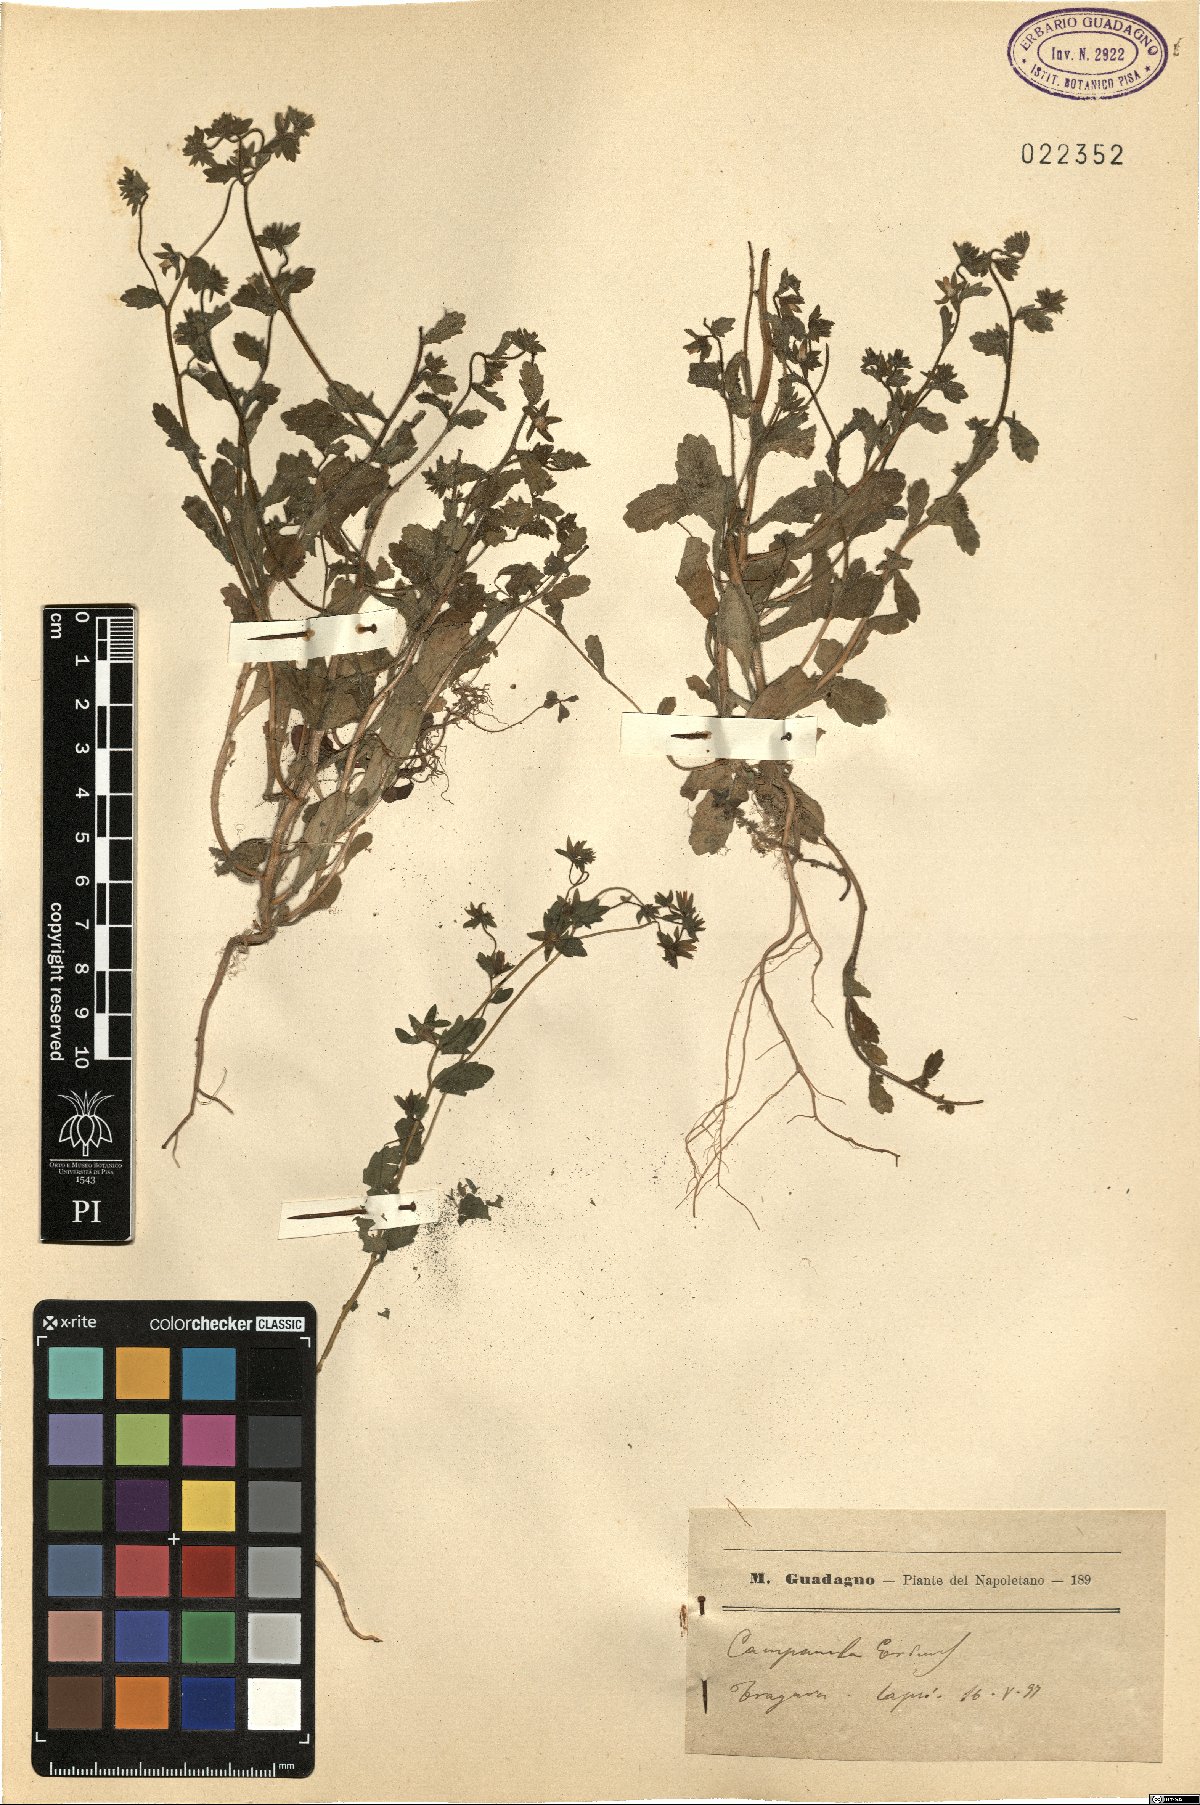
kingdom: Plantae
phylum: Tracheophyta
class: Magnoliopsida
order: Asterales
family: Campanulaceae
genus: Campanula
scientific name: Campanula erinus
